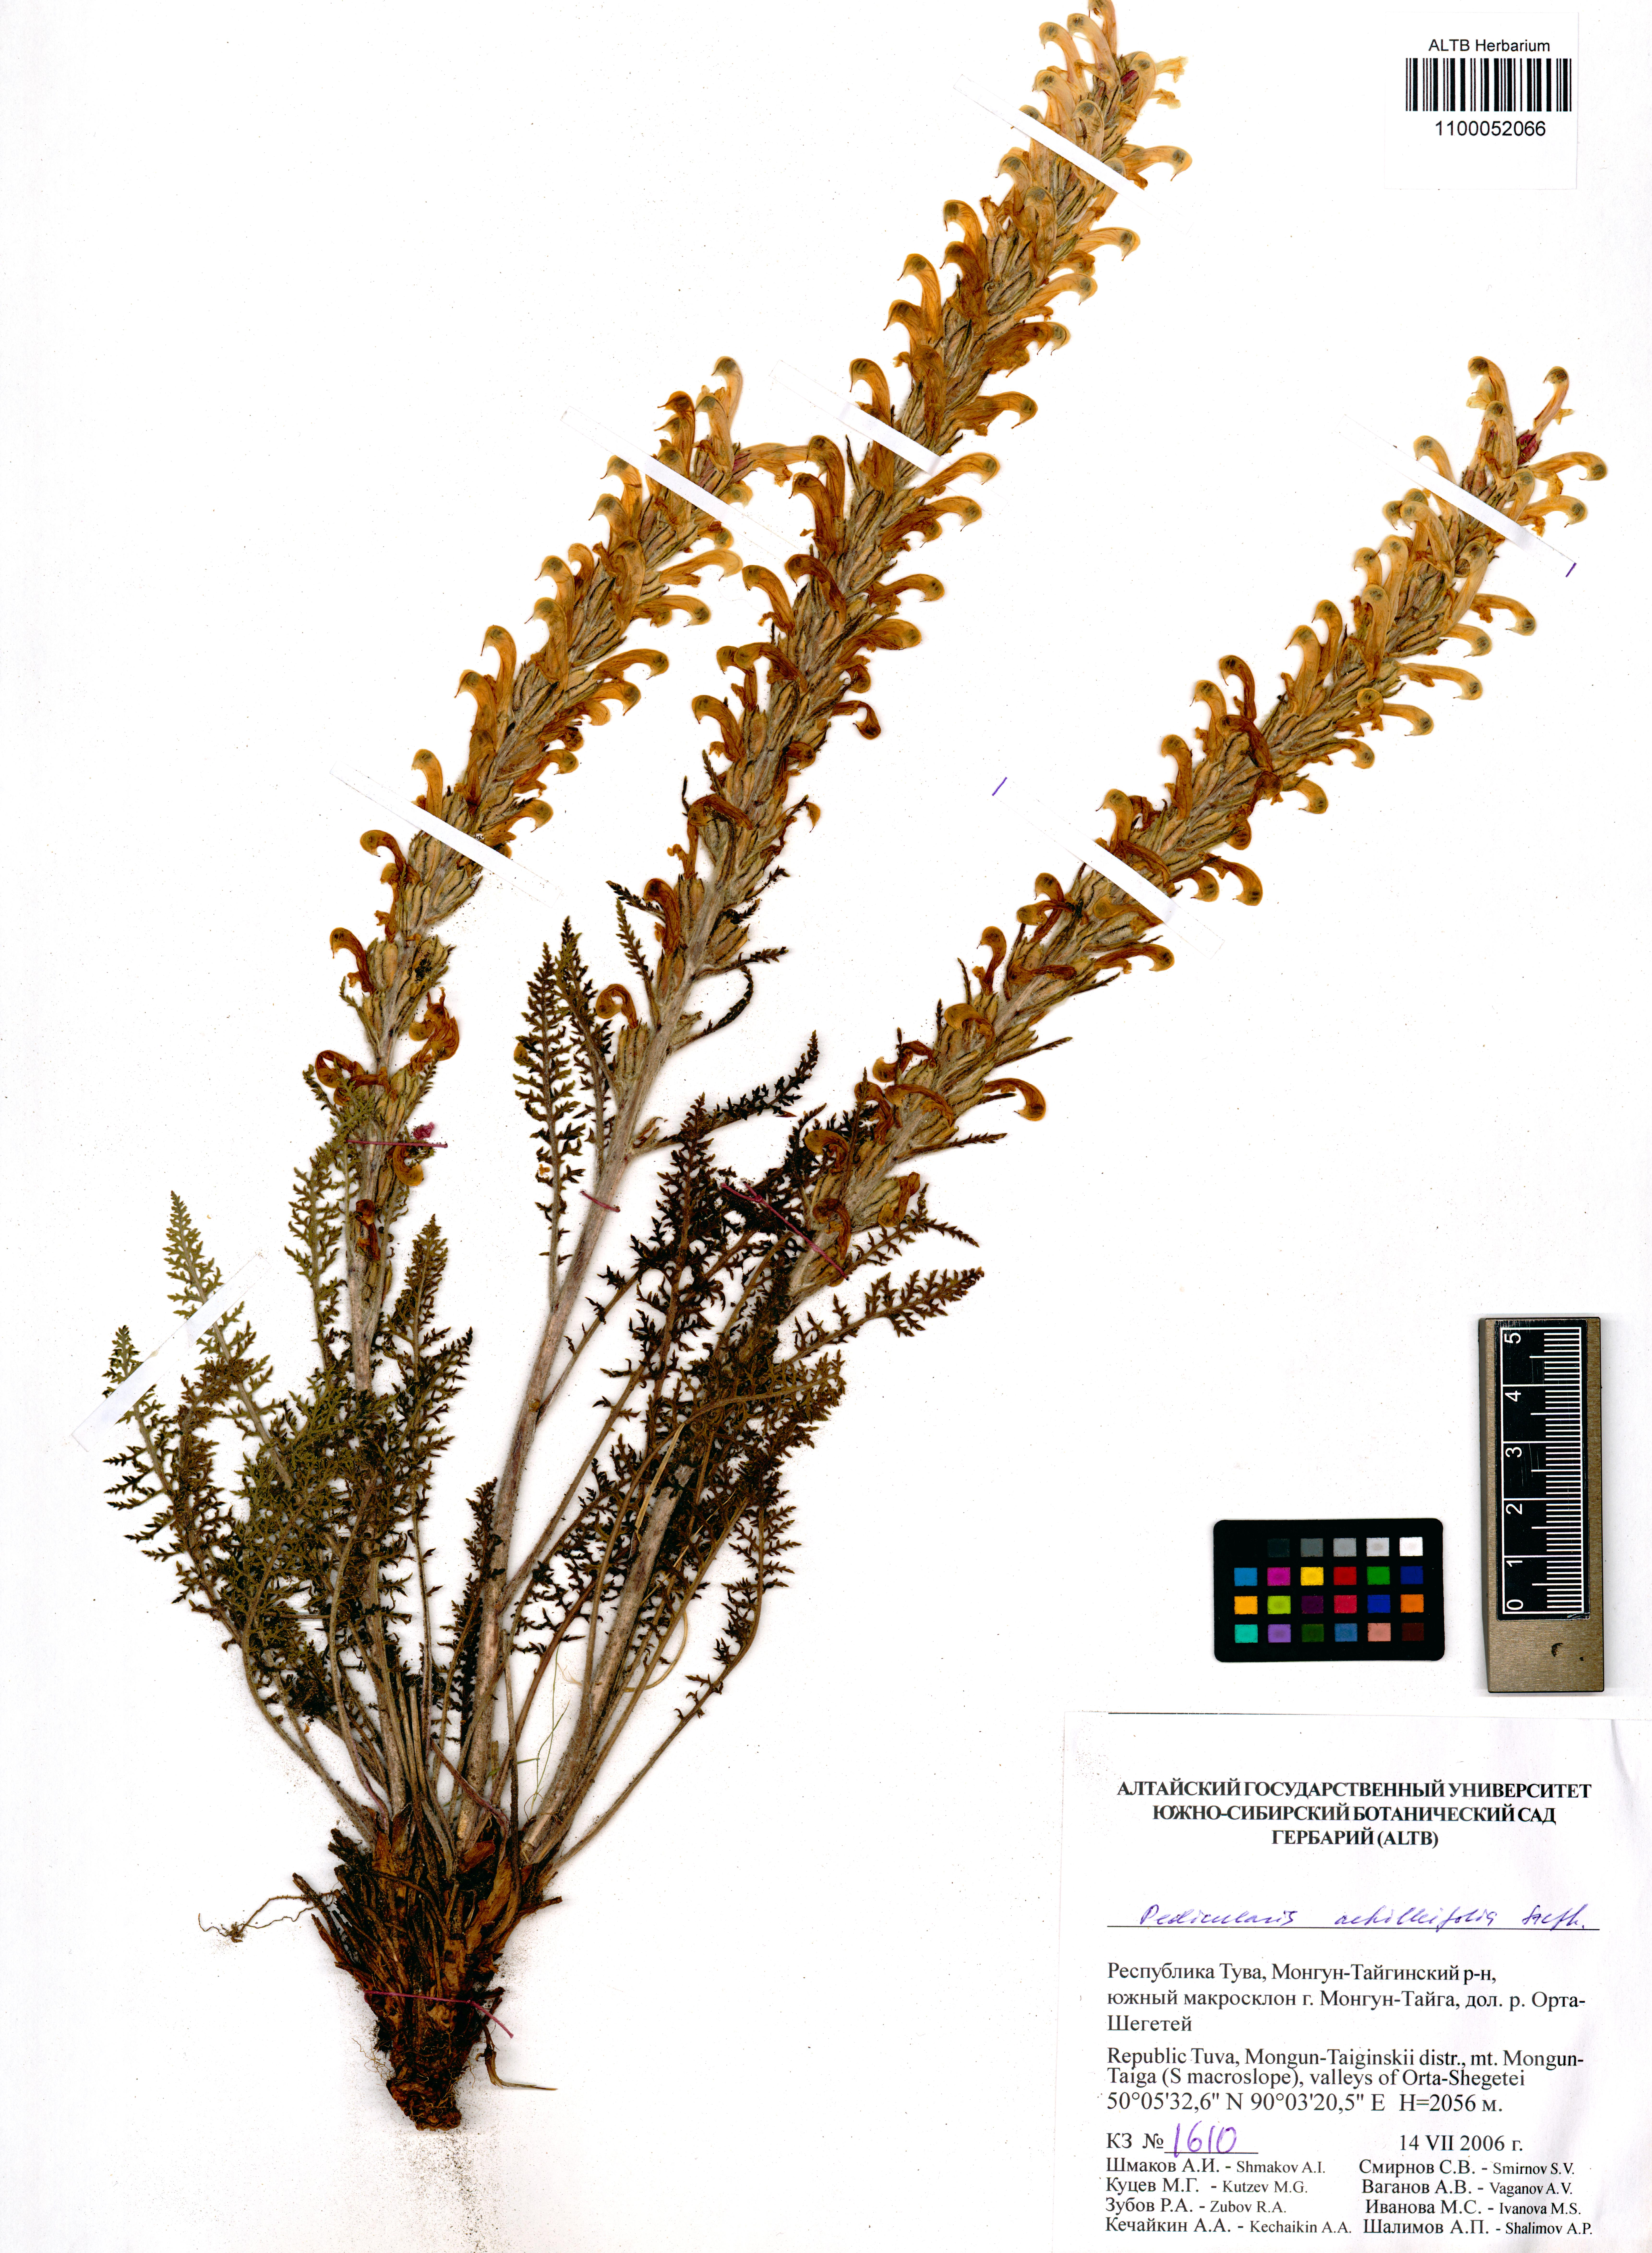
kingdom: Plantae
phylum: Tracheophyta
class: Magnoliopsida
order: Lamiales
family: Orobanchaceae
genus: Pedicularis
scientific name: Pedicularis achilleifolia
